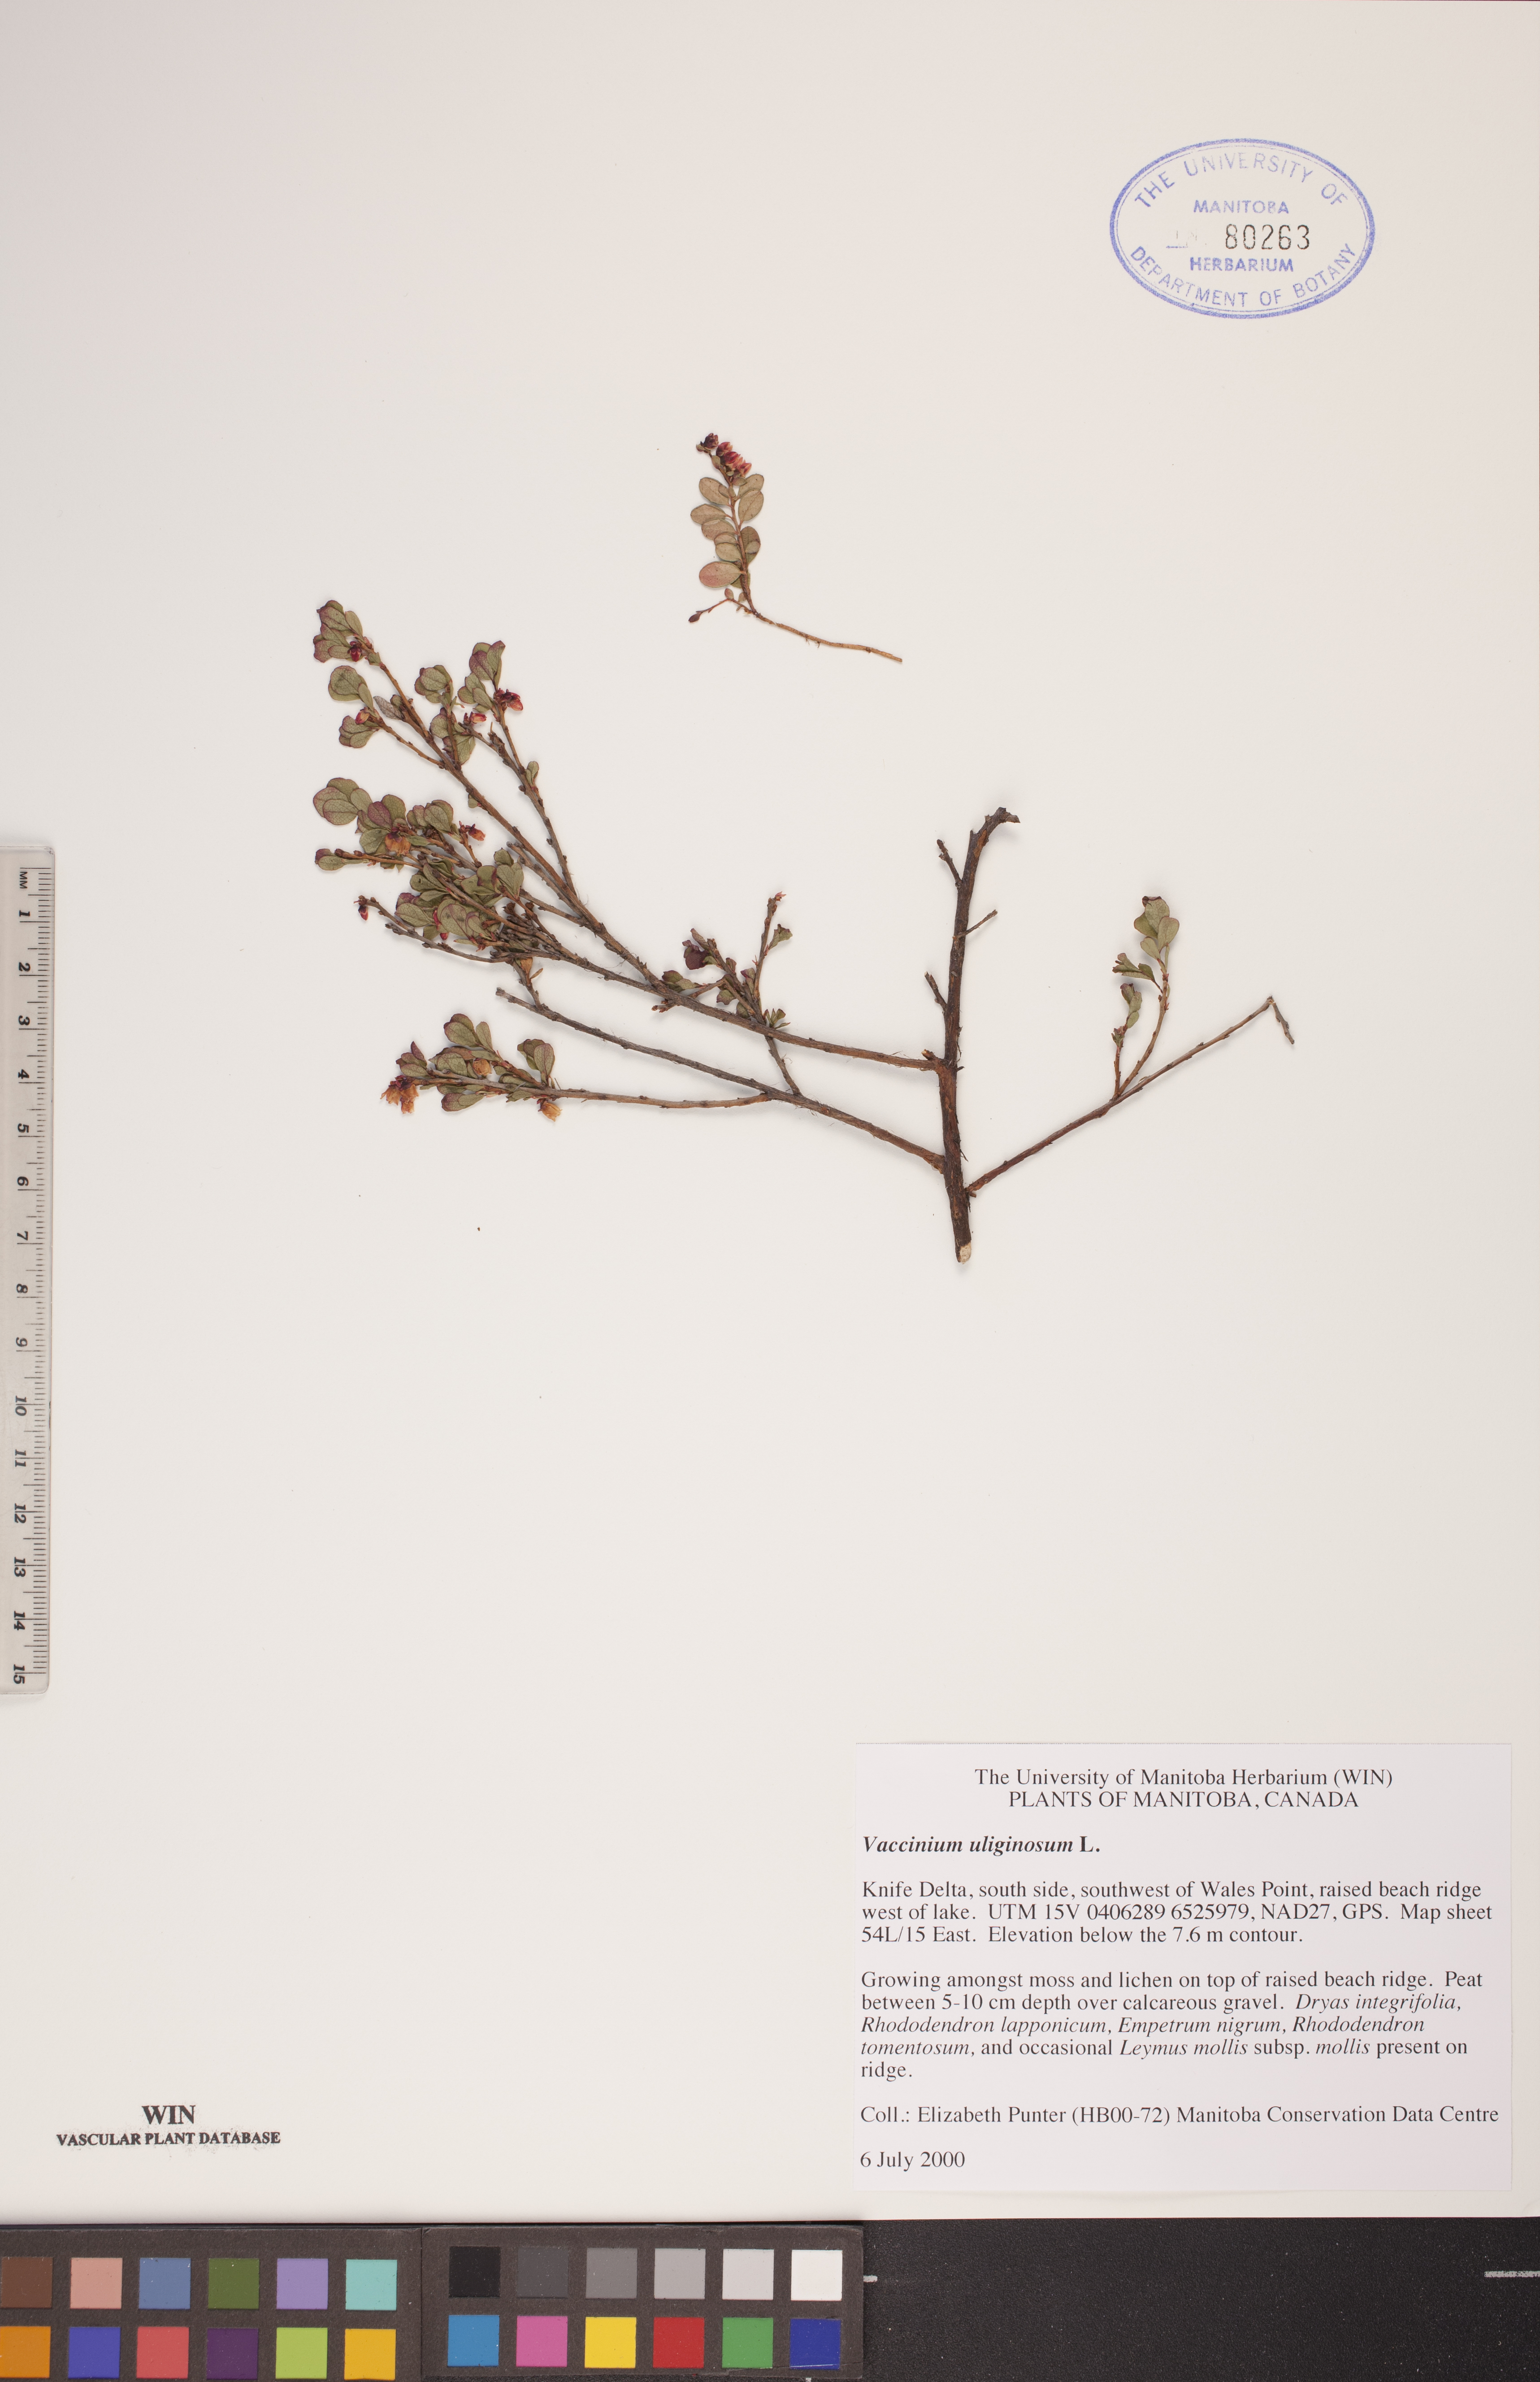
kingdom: Plantae
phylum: Tracheophyta
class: Magnoliopsida
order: Ericales
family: Ericaceae
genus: Vaccinium
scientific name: Vaccinium uliginosum
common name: Bog bilberry
